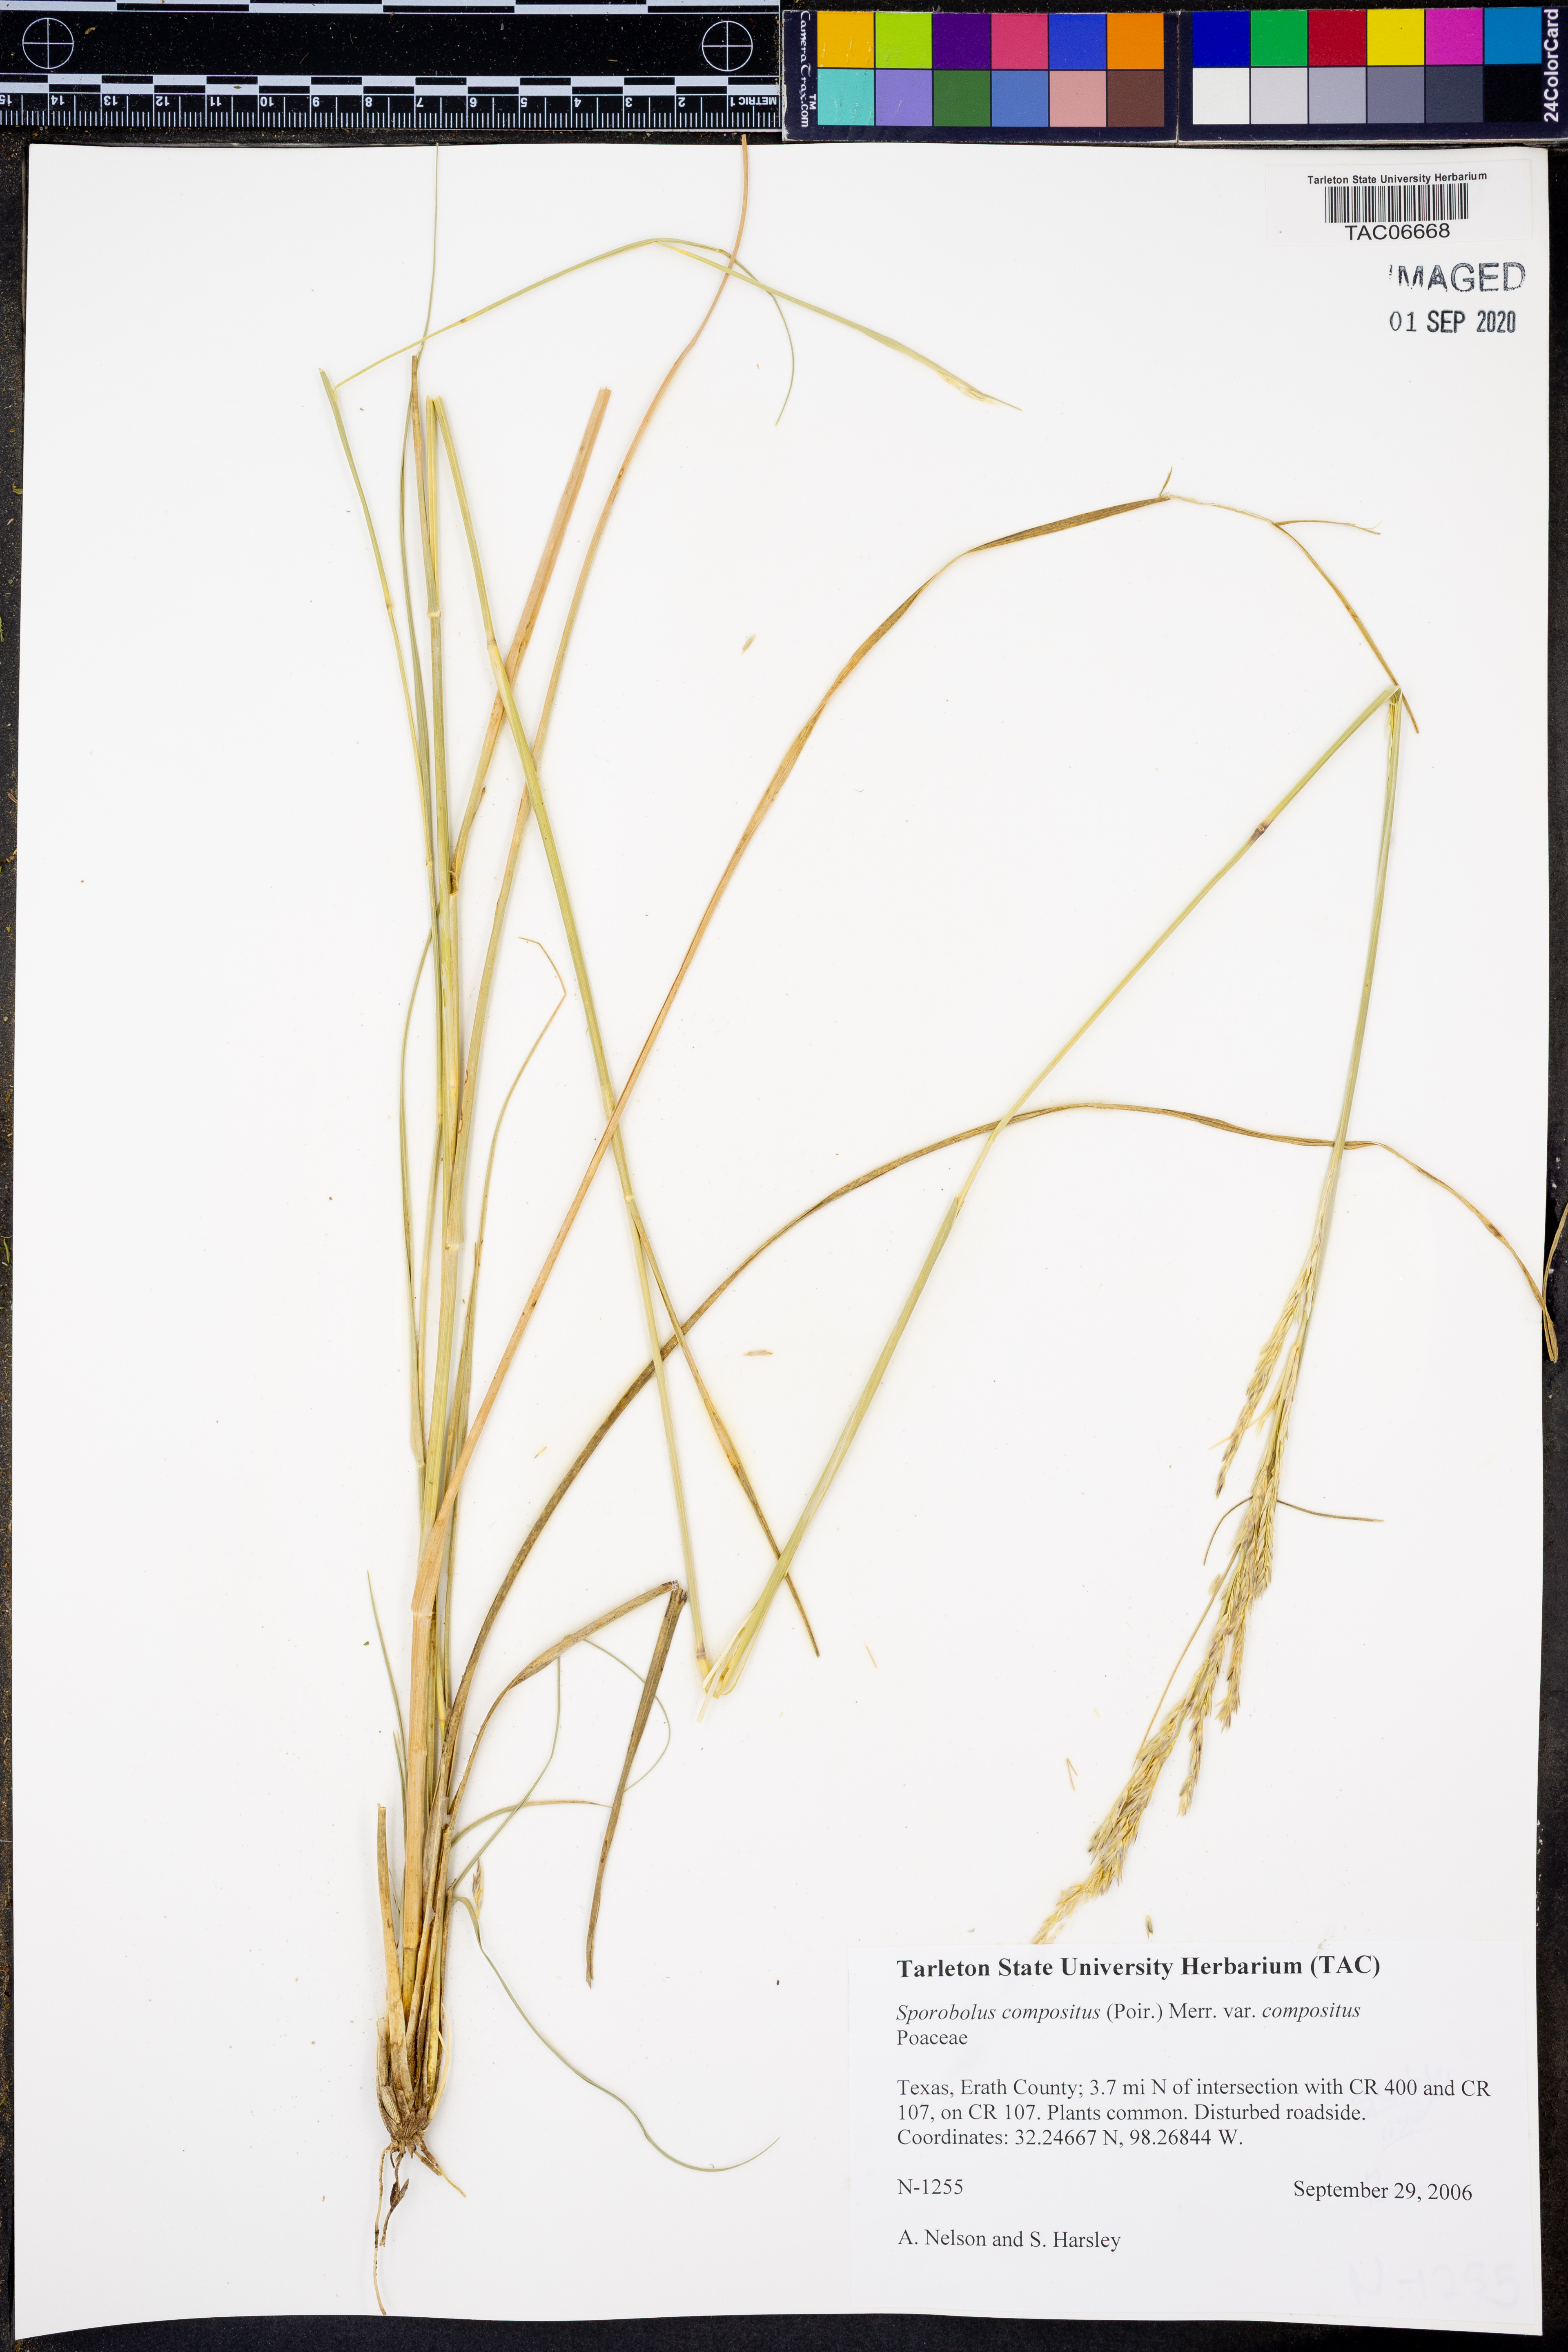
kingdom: Plantae
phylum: Tracheophyta
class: Liliopsida
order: Poales
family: Poaceae
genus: Sporobolus
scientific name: Sporobolus compositus
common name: Rough dropseed
